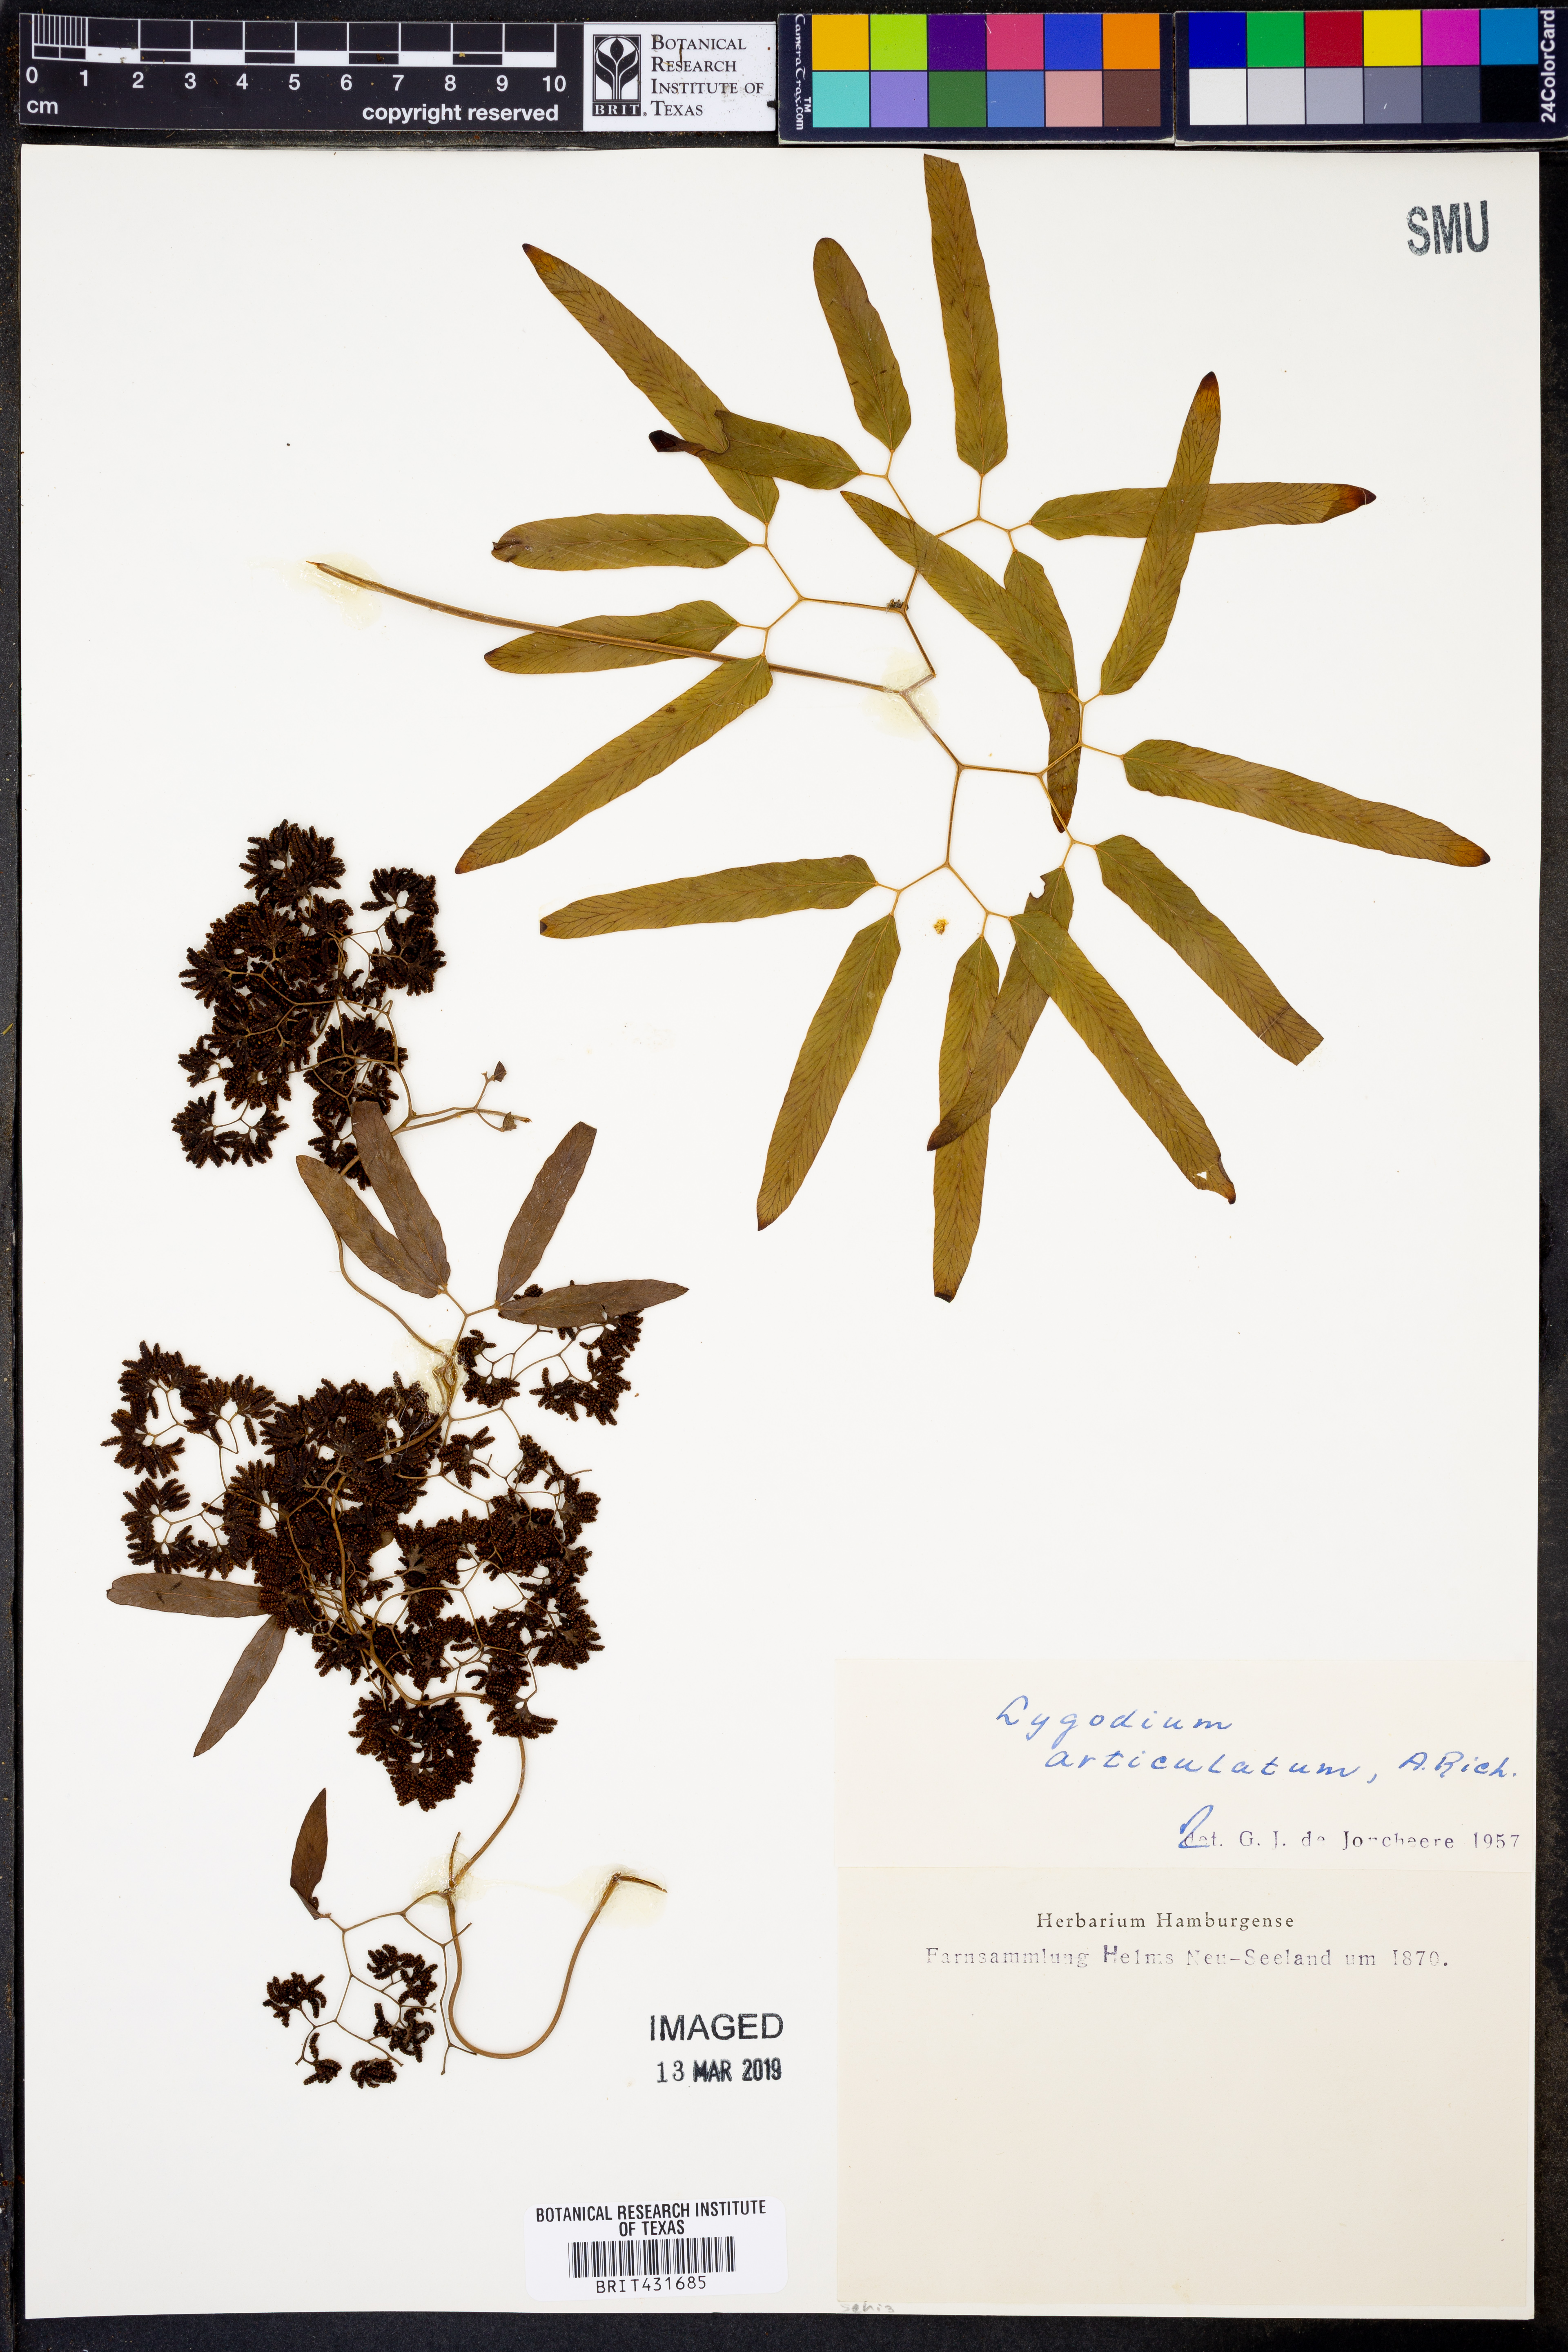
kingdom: Plantae
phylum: Tracheophyta
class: Polypodiopsida
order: Schizaeales
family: Lygodiaceae
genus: Lygodium
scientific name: Lygodium articulatum
